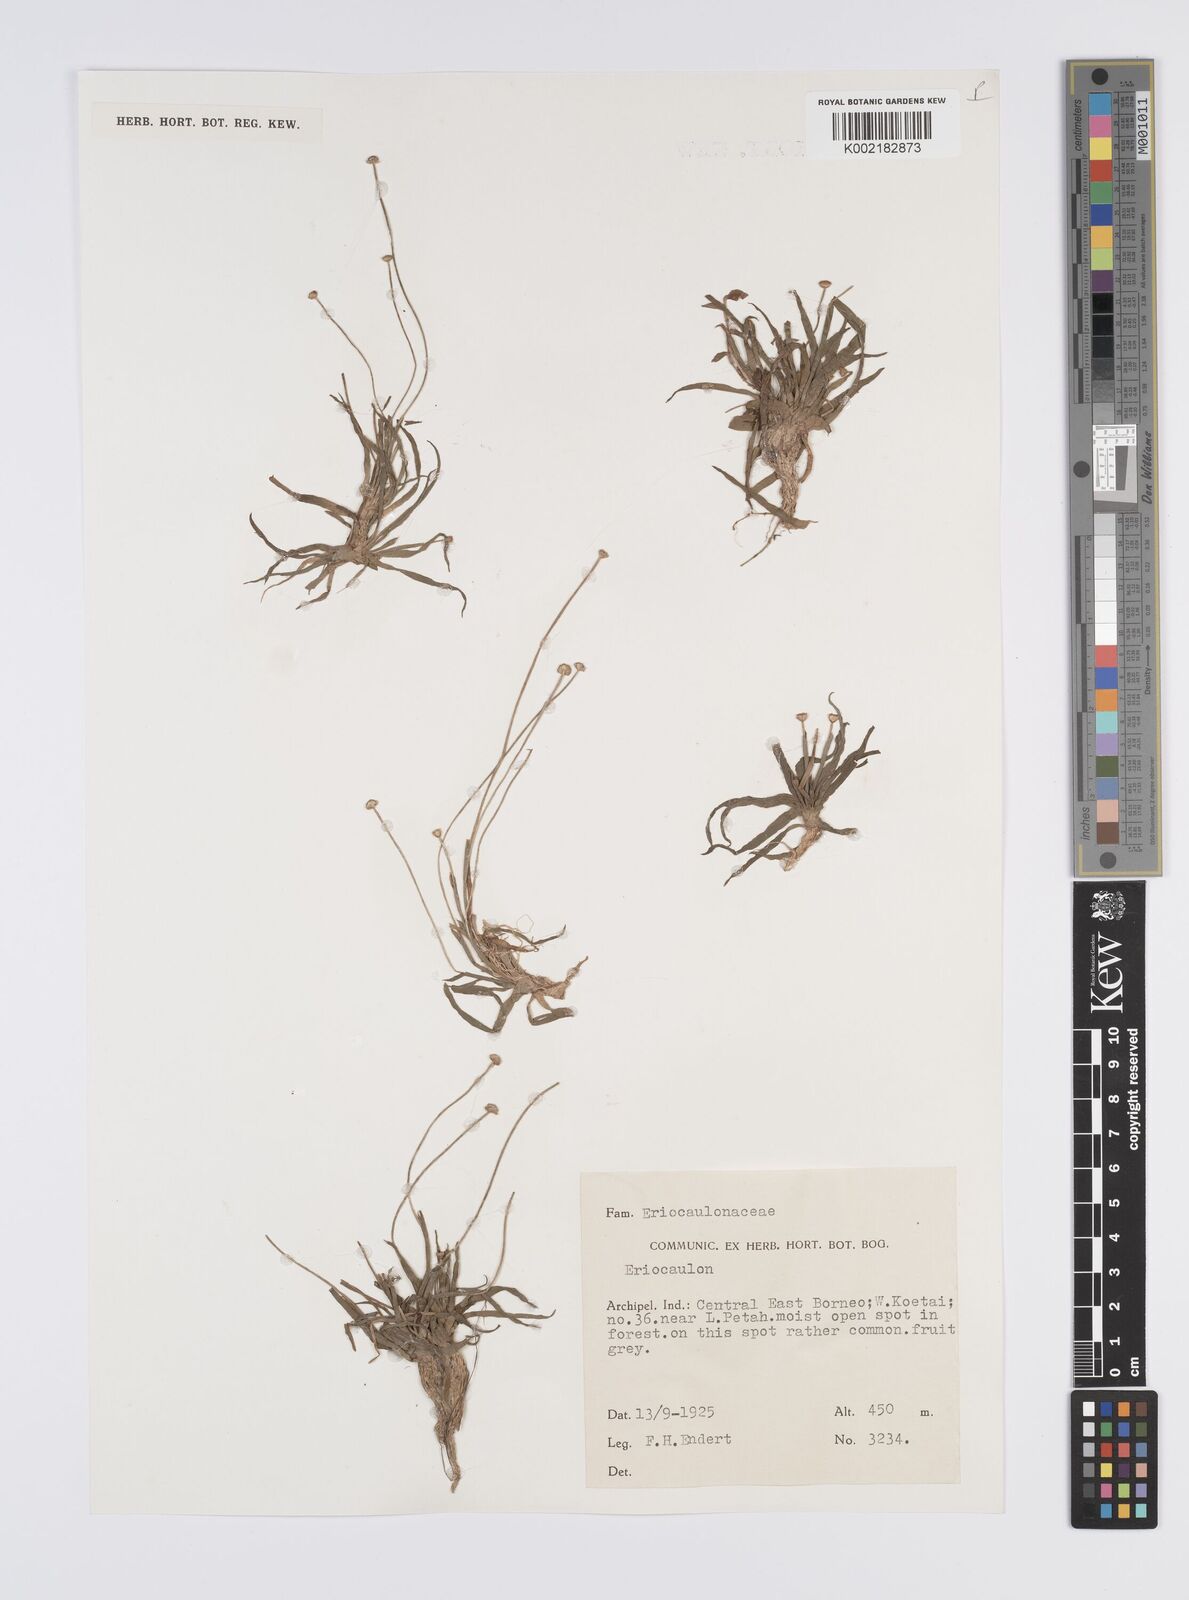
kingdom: Plantae
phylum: Tracheophyta
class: Liliopsida
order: Poales
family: Eriocaulaceae
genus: Eriocaulon
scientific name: Eriocaulon
